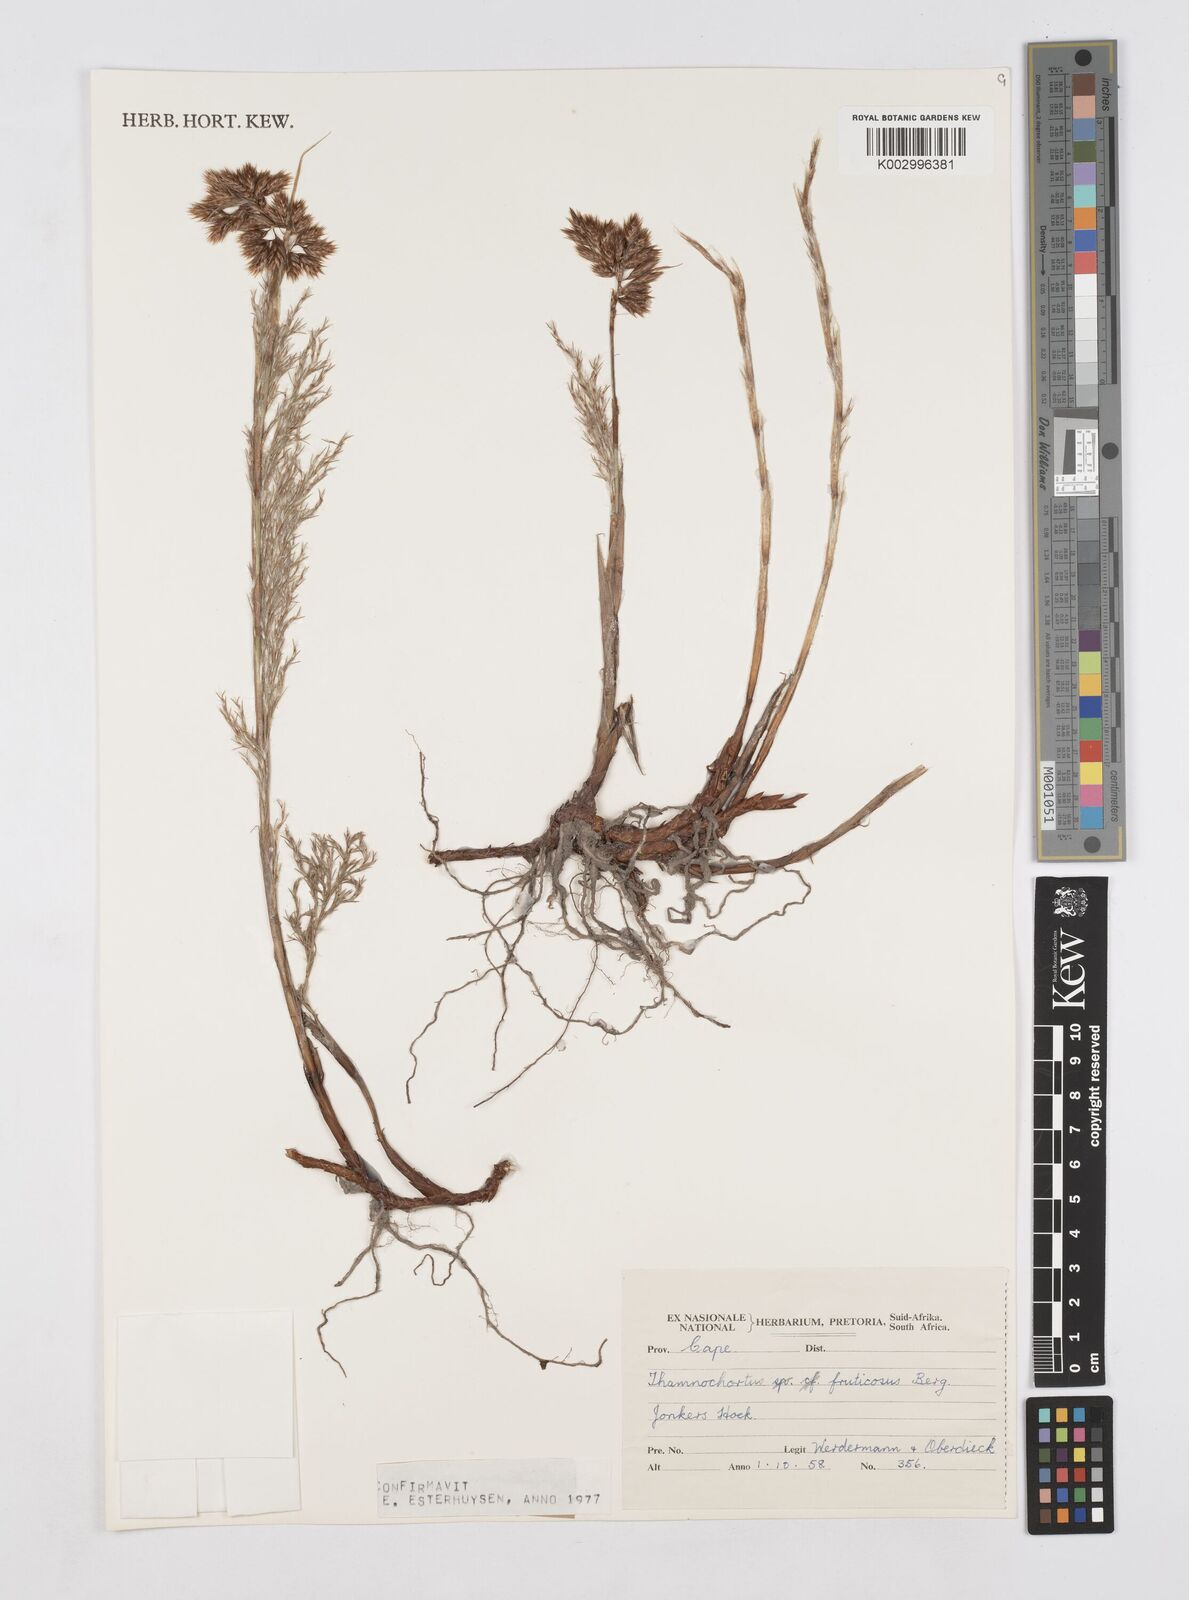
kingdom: Plantae
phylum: Tracheophyta
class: Liliopsida
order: Poales
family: Restionaceae
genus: Hypodiscus
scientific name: Hypodiscus argenteus
